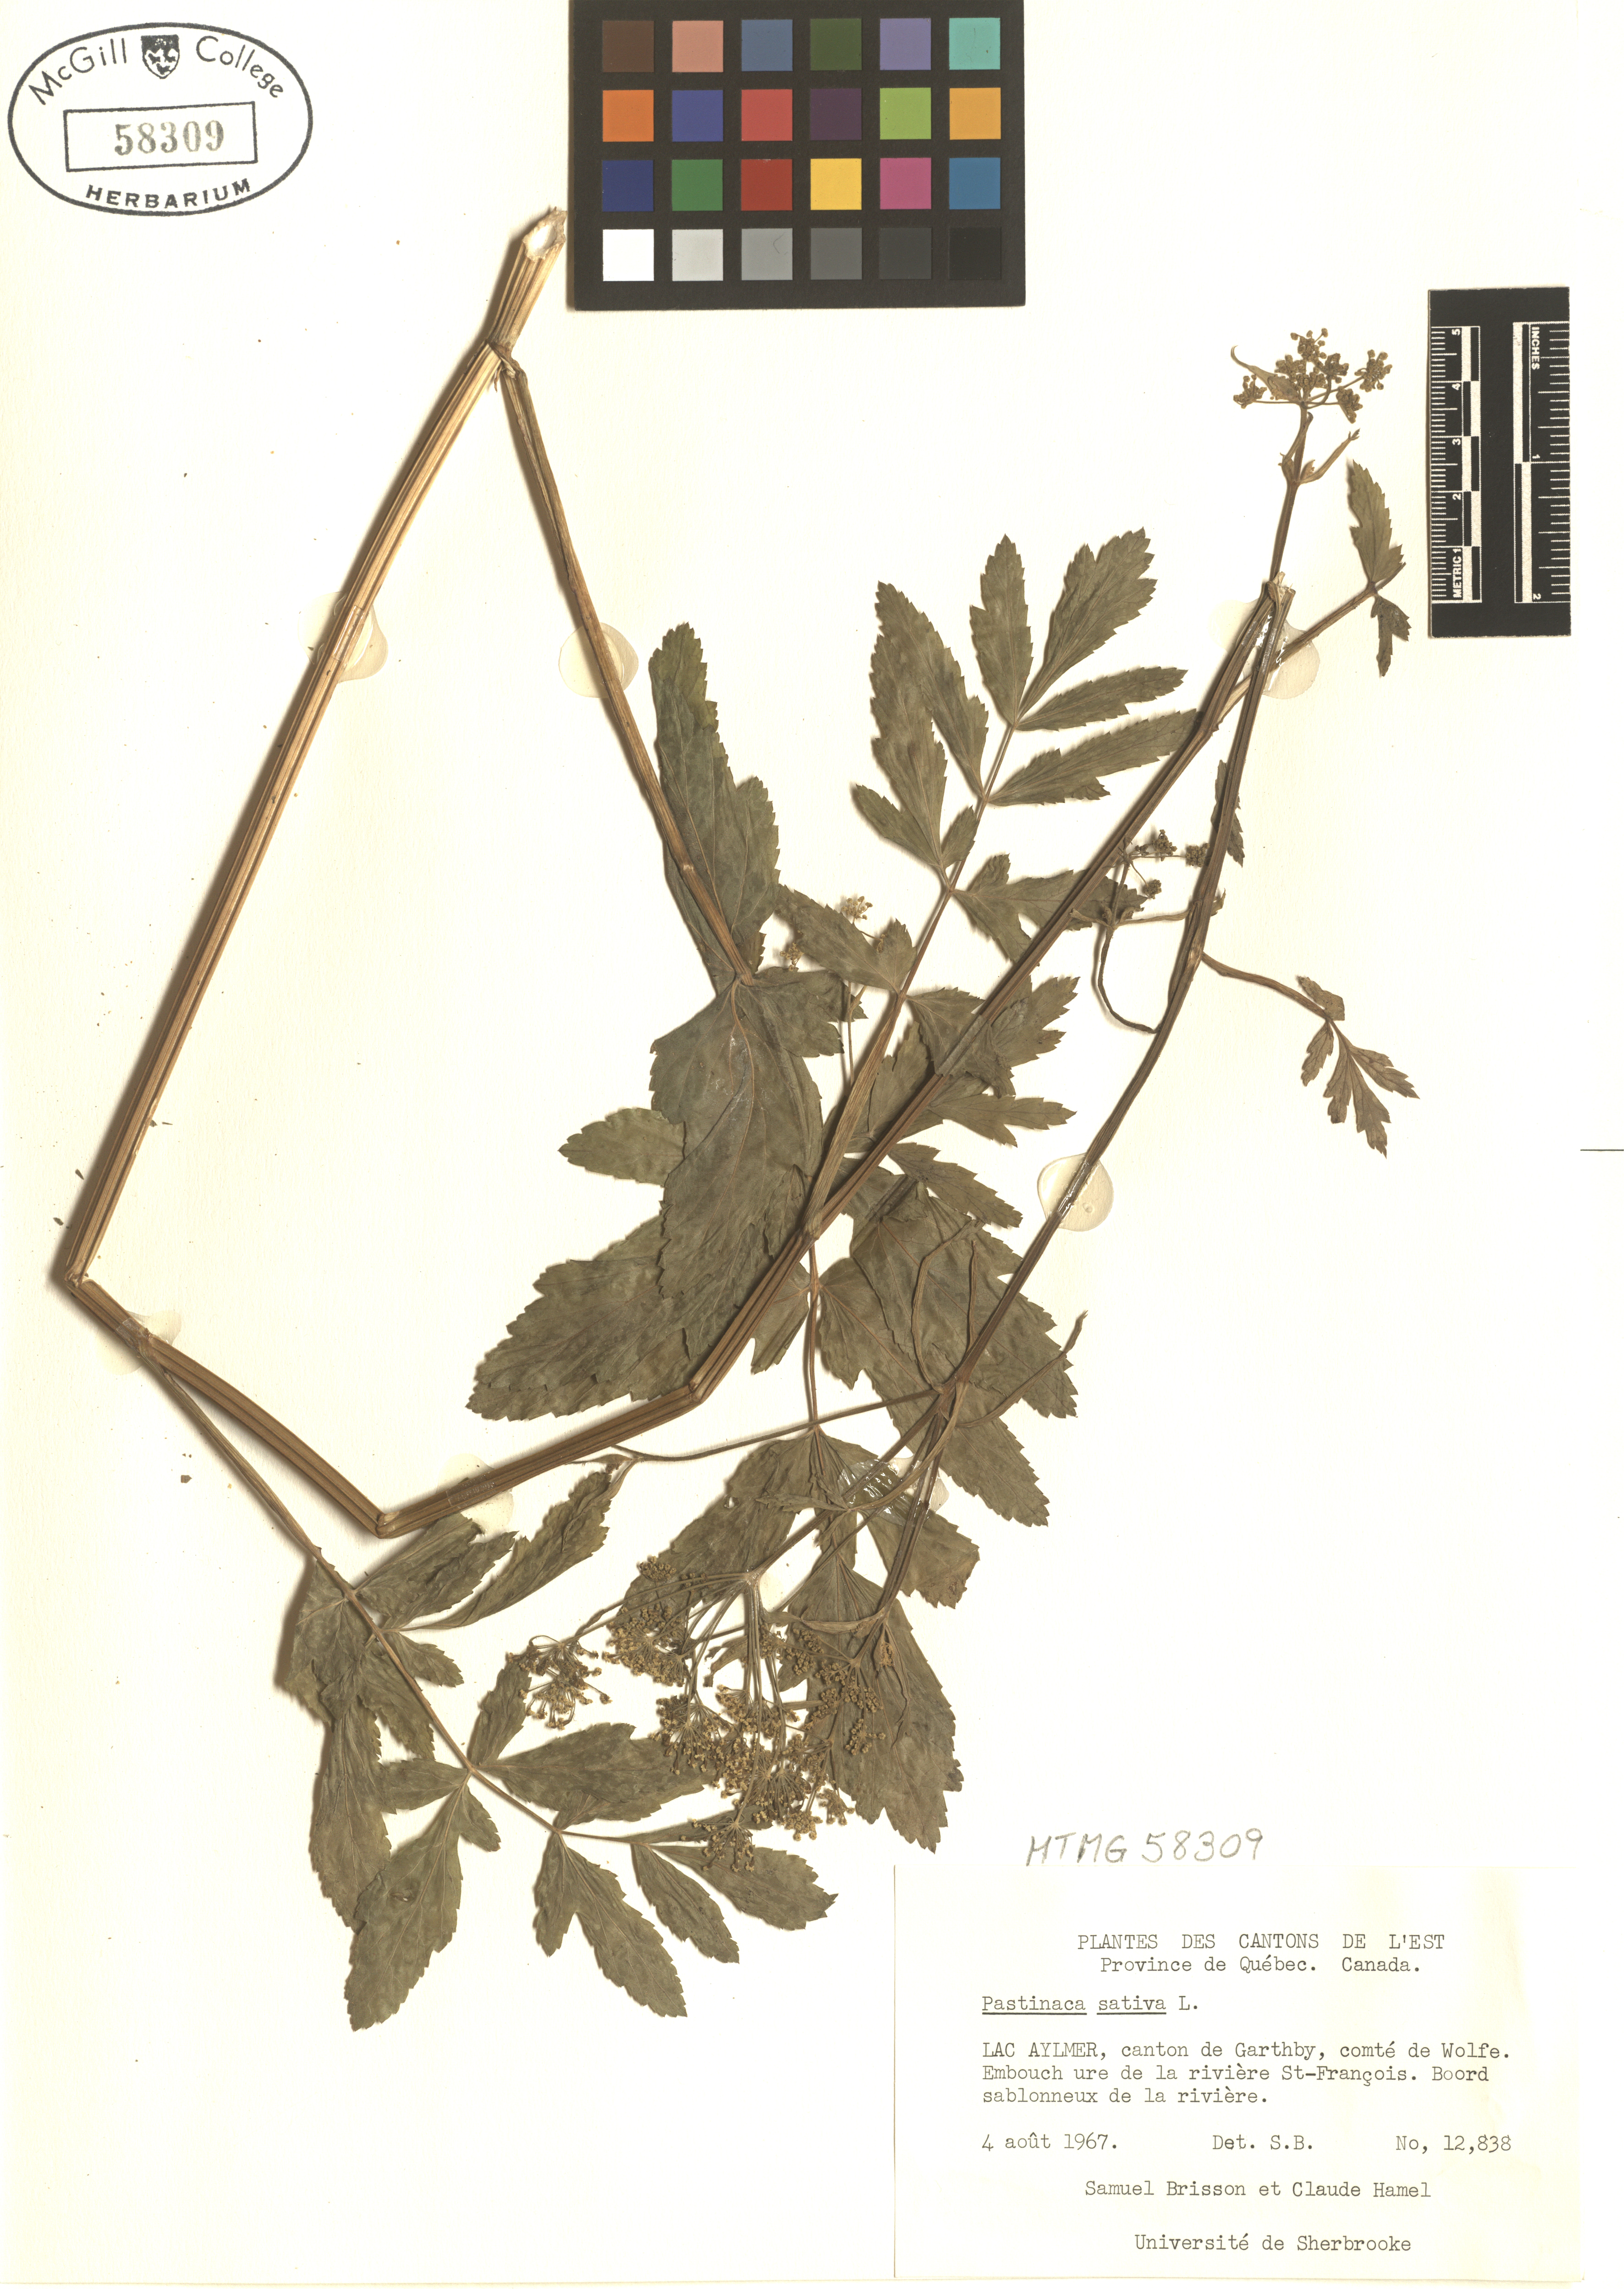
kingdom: Plantae
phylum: Tracheophyta
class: Magnoliopsida
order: Apiales
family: Apiaceae
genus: Pastinaca
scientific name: Pastinaca sativa
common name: Wild parsnip
